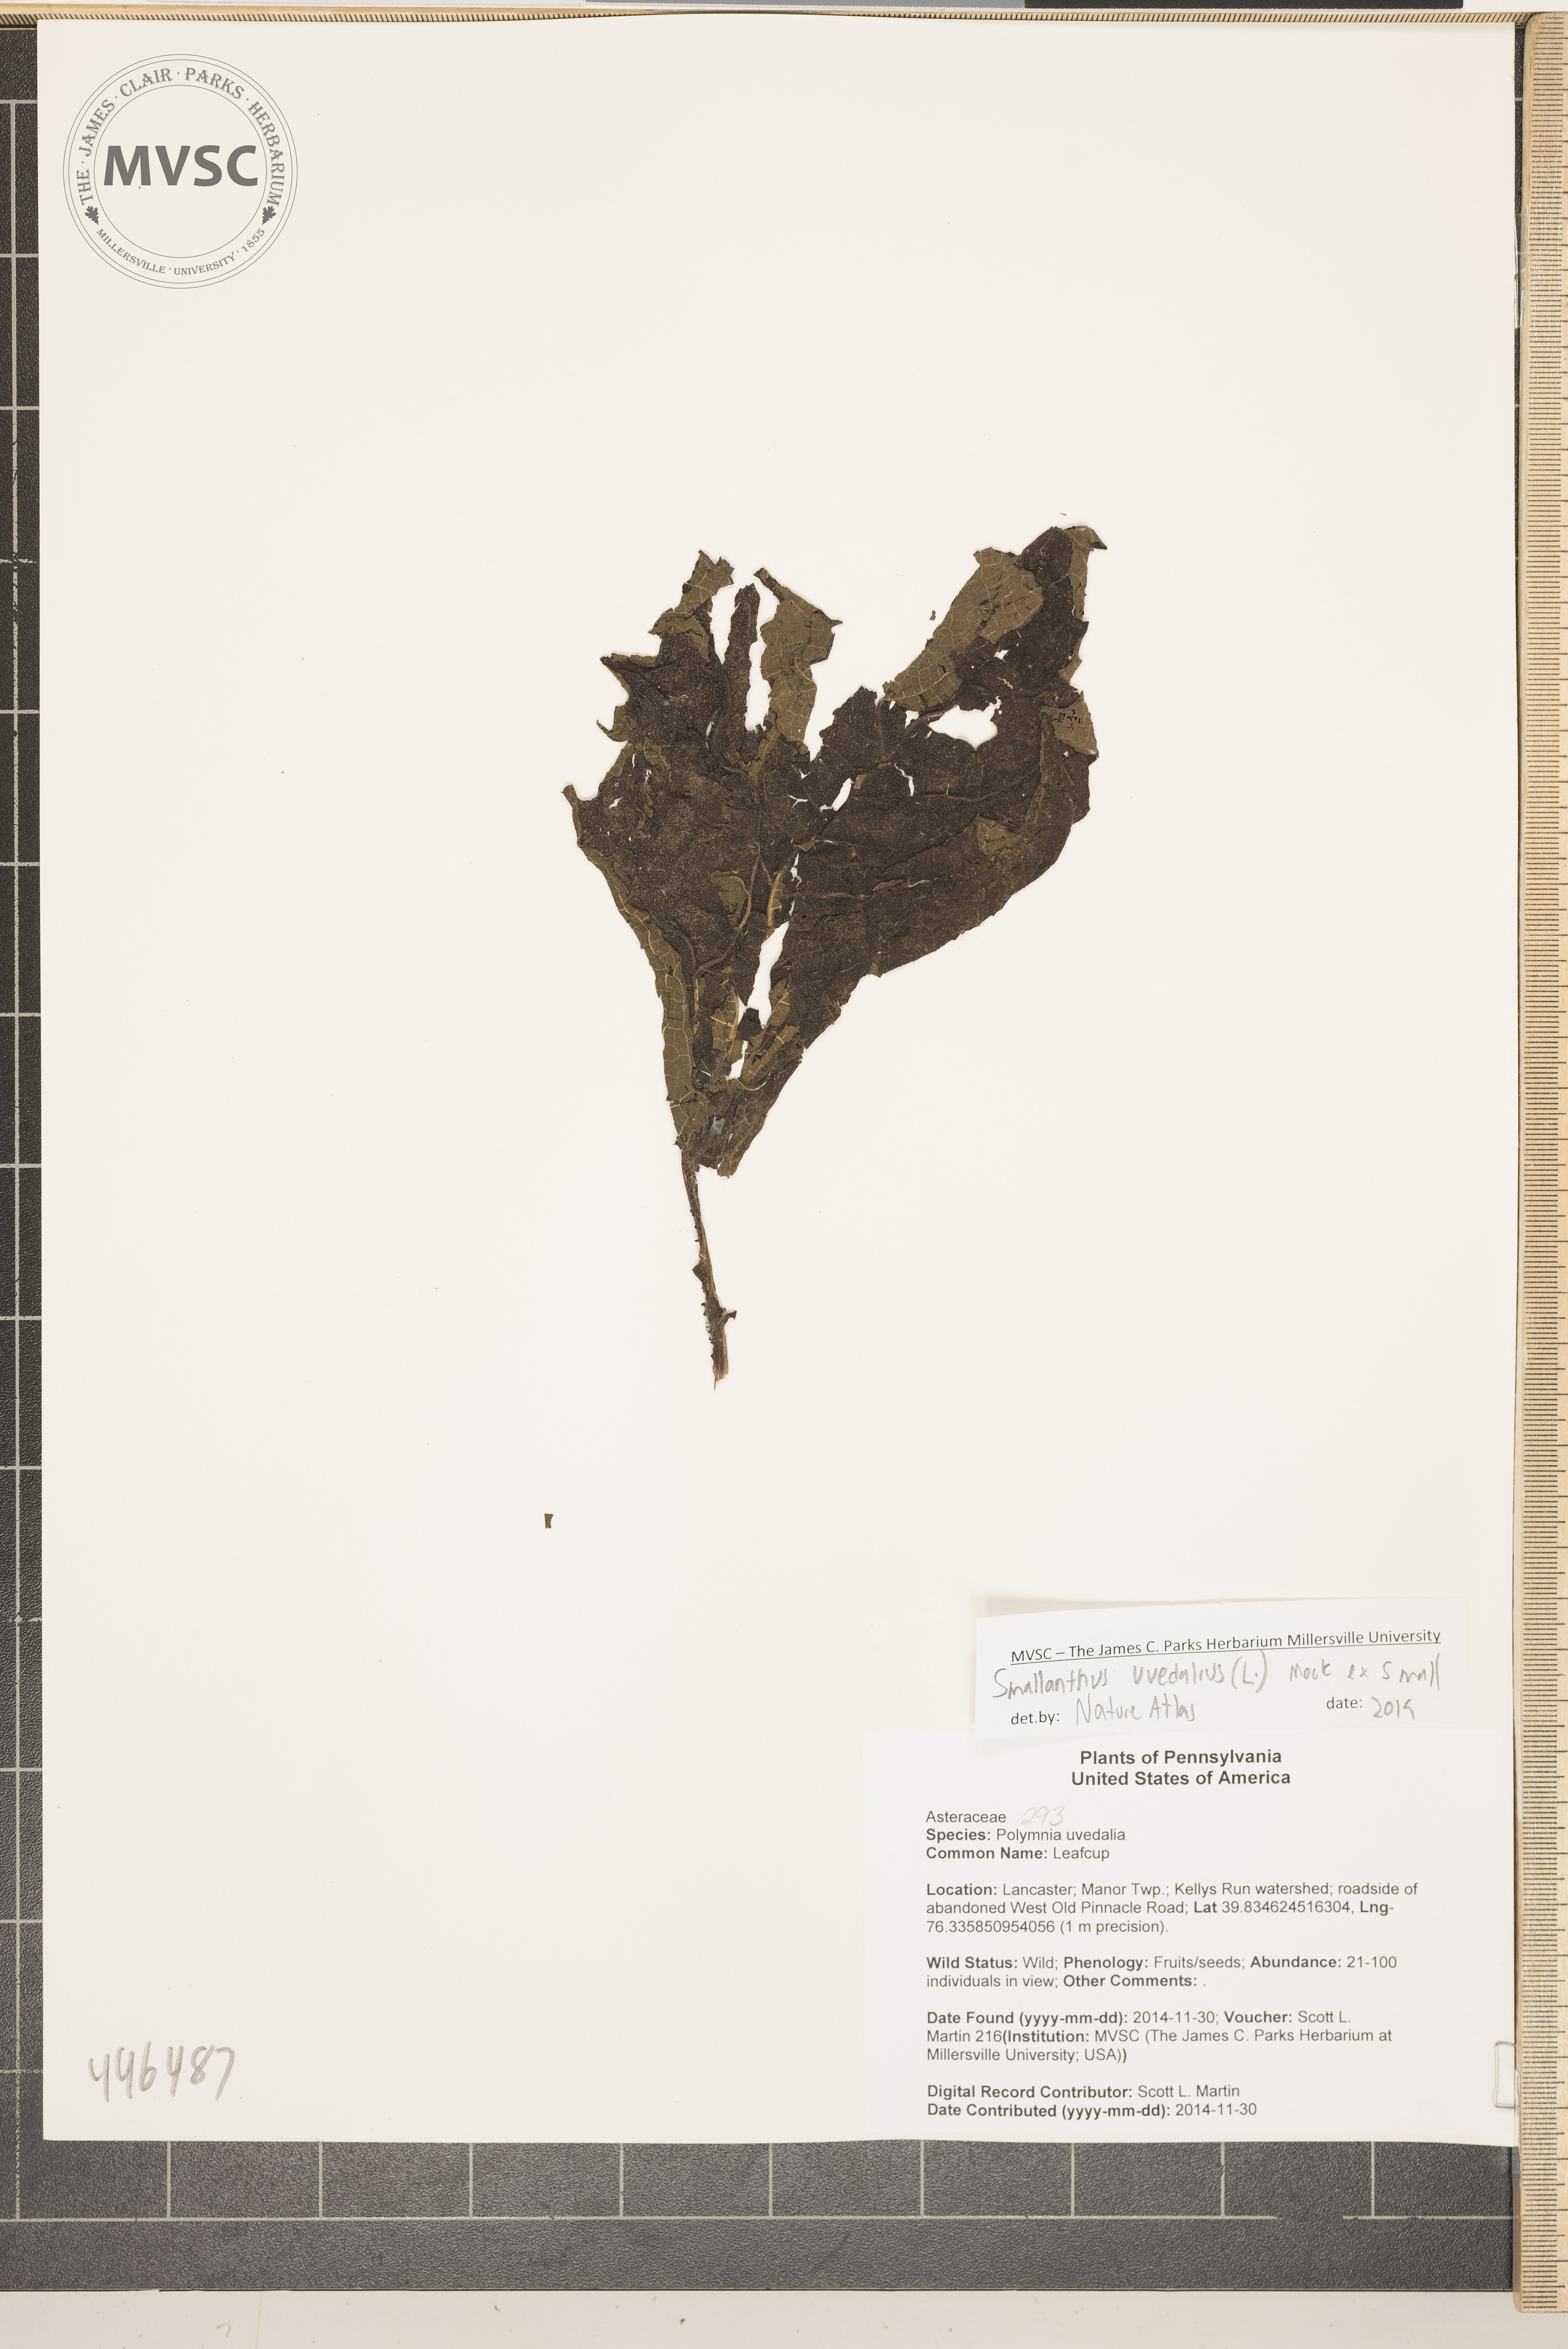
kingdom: Plantae
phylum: Tracheophyta
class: Magnoliopsida
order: Asterales
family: Asteraceae
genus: Smallanthus
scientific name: Smallanthus uvedalia
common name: Leafcup
